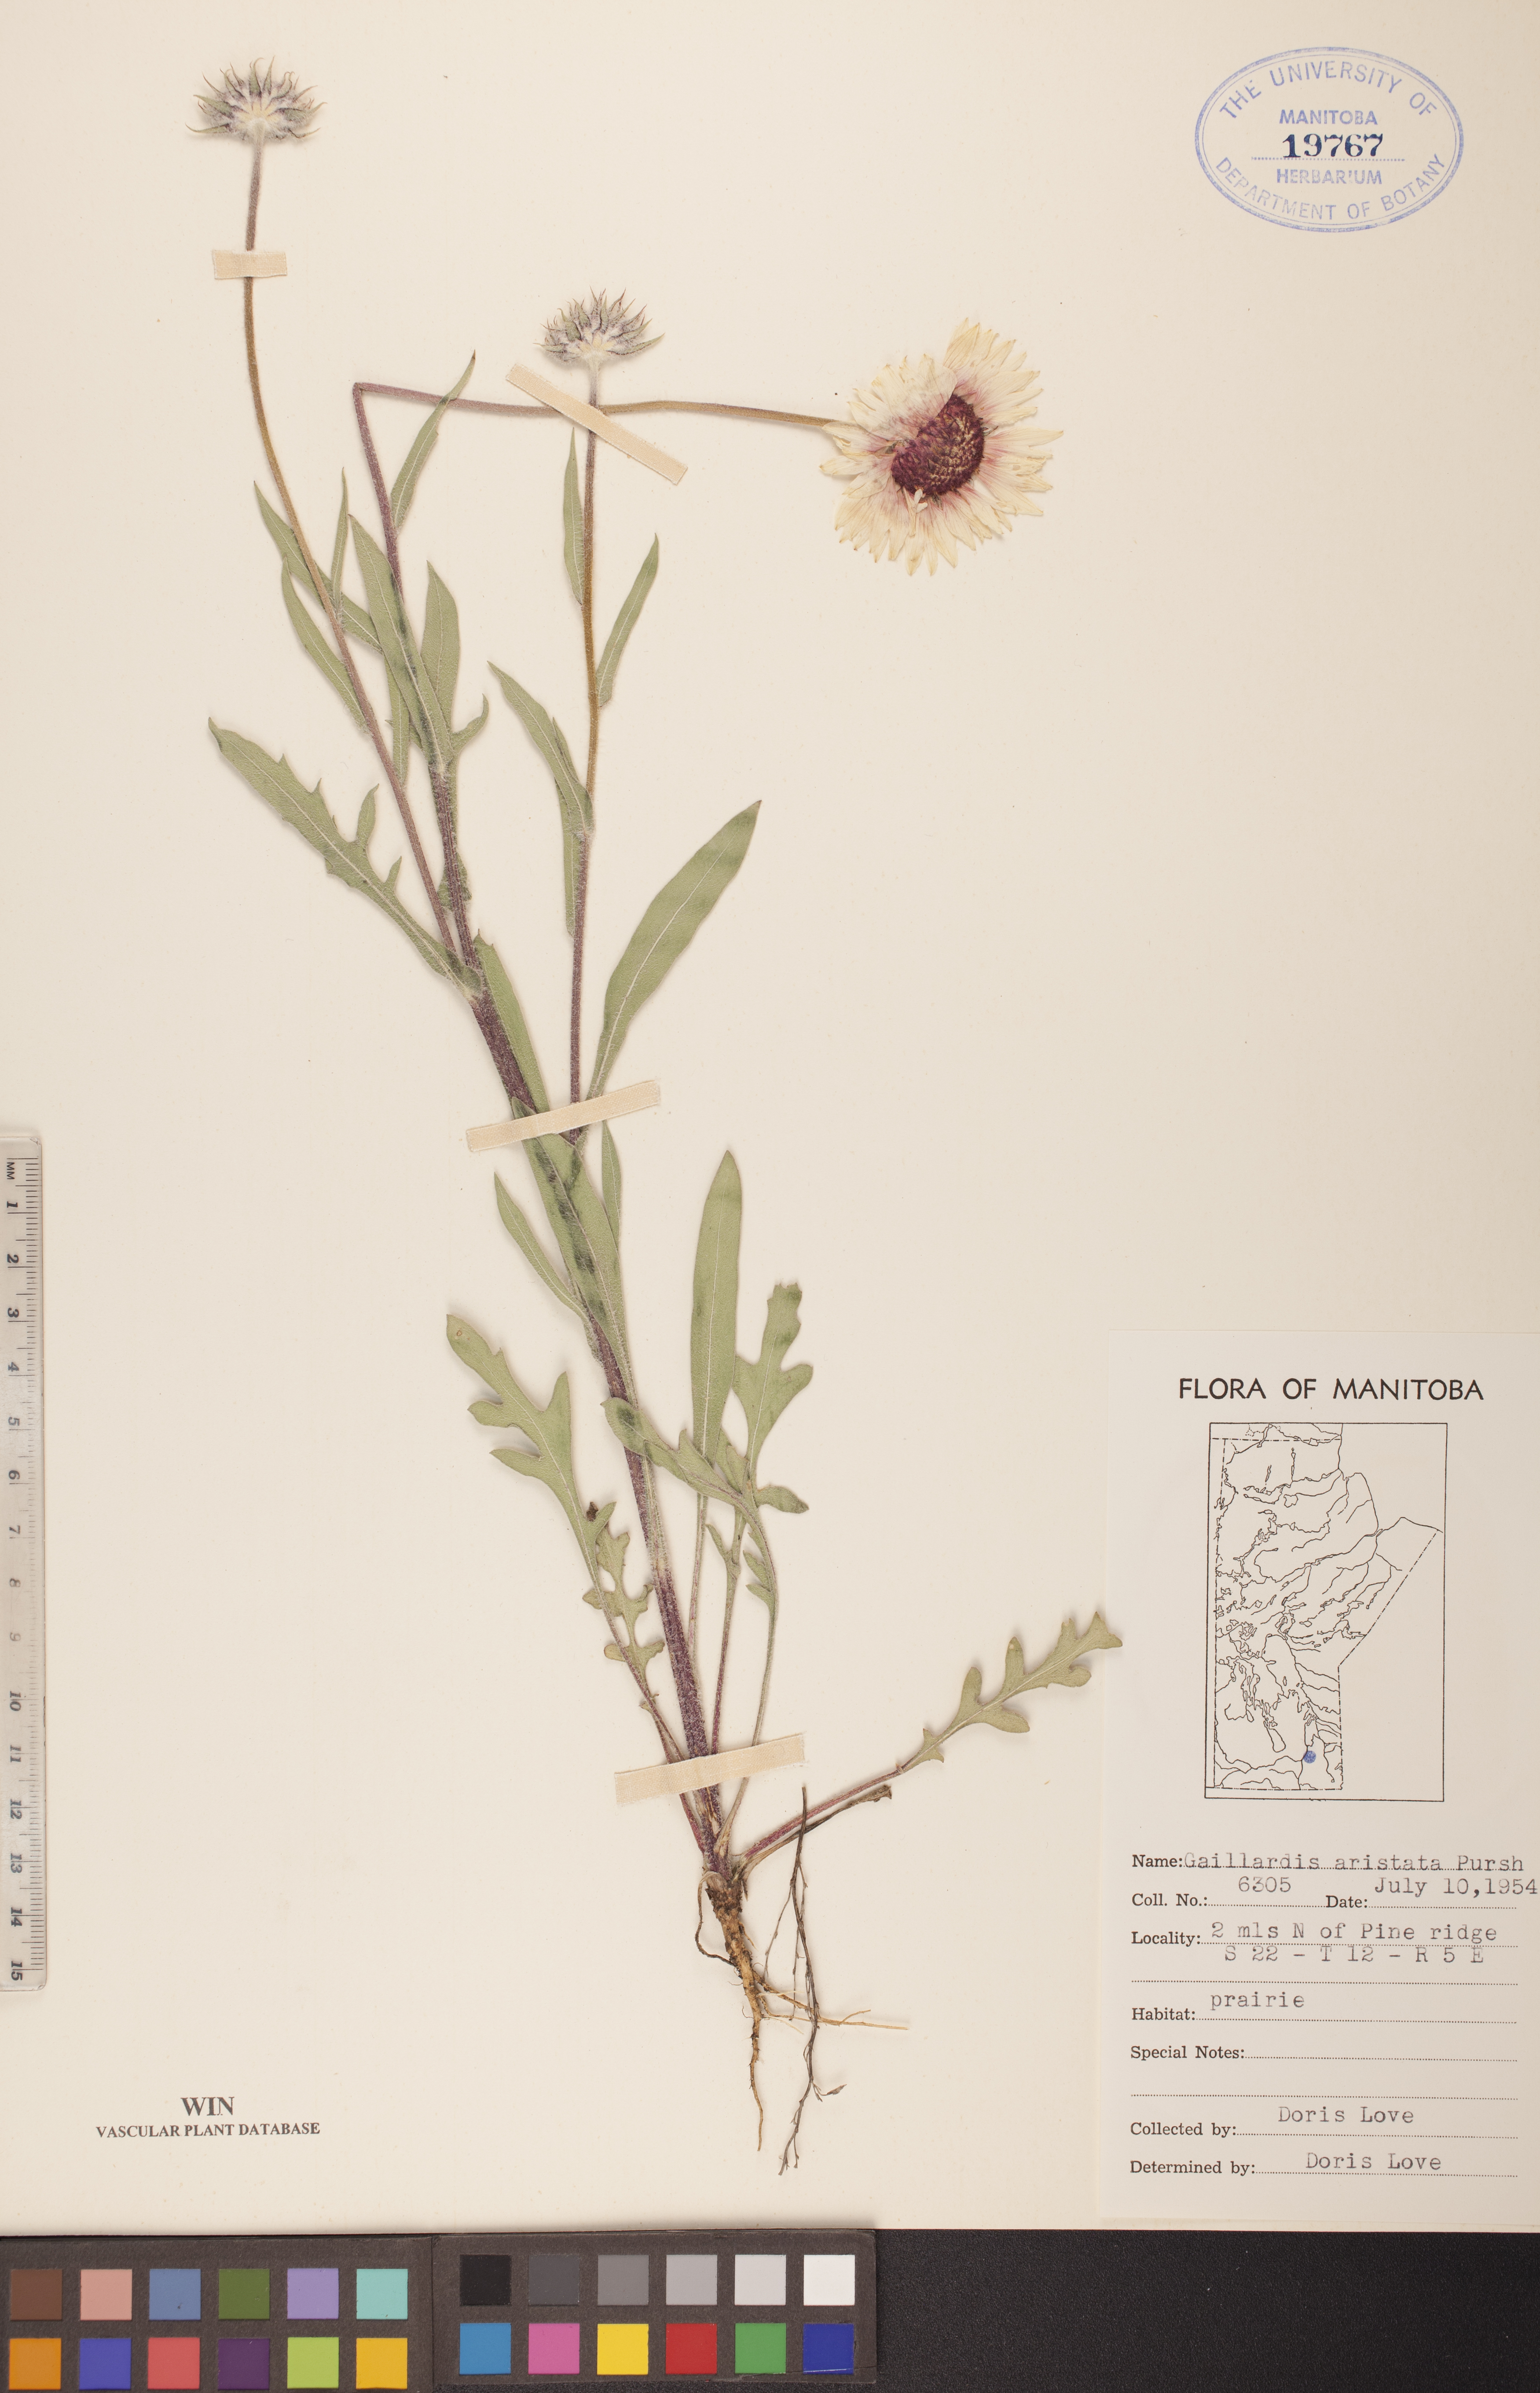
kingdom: Plantae
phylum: Tracheophyta
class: Magnoliopsida
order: Asterales
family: Asteraceae
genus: Gaillardia
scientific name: Gaillardia aristata
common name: Blanket-flower
